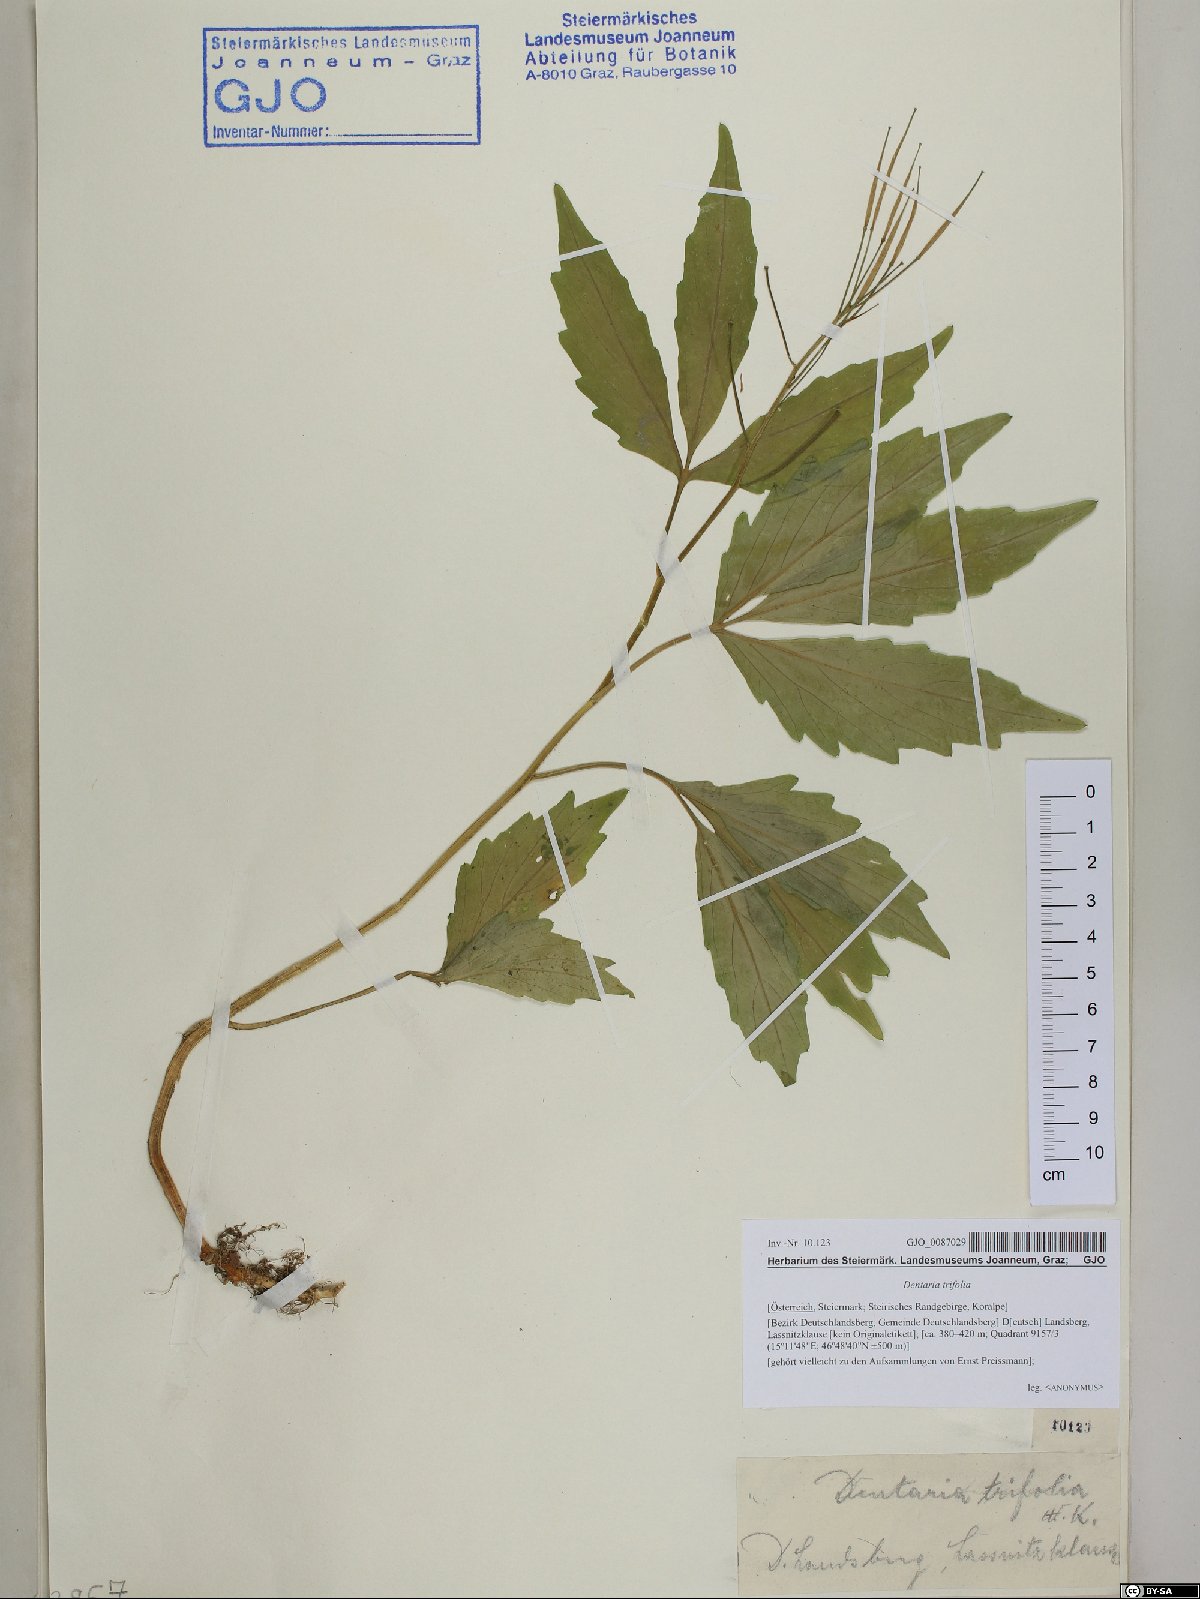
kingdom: Plantae
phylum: Tracheophyta
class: Magnoliopsida
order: Brassicales
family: Brassicaceae
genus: Cardamine
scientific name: Cardamine waldsteinii
